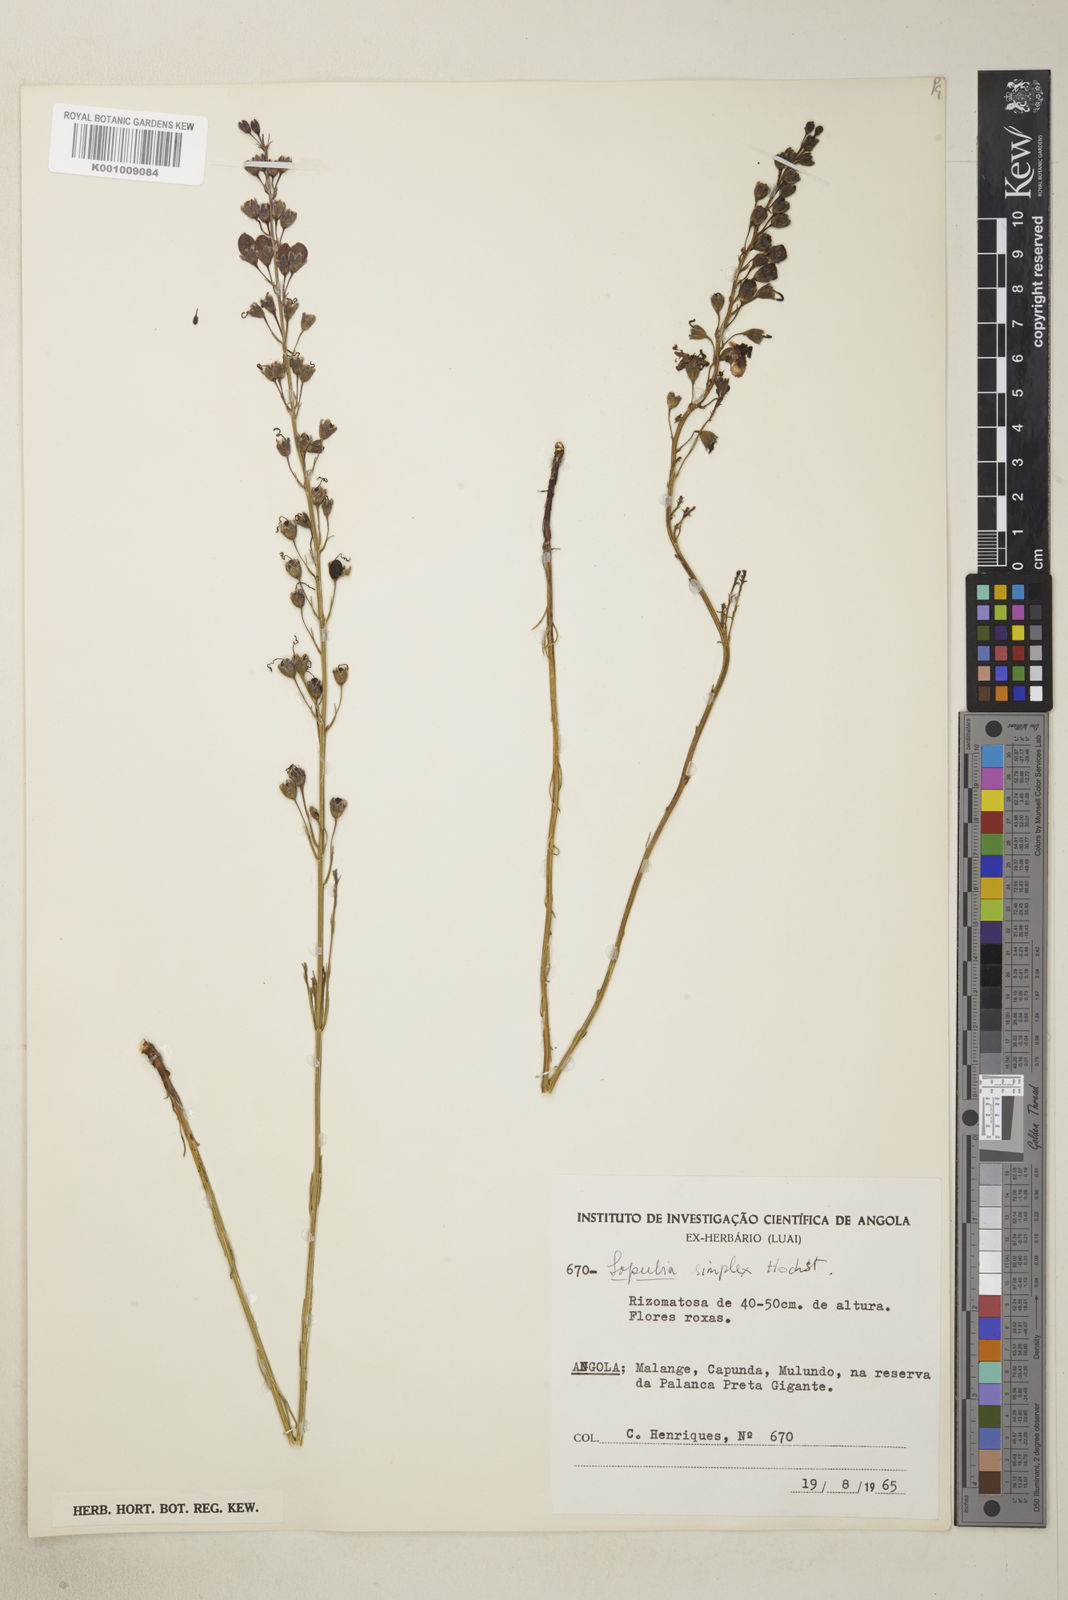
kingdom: Plantae
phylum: Tracheophyta
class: Magnoliopsida
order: Lamiales
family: Orobanchaceae
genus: Sopubia
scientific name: Sopubia simplex
